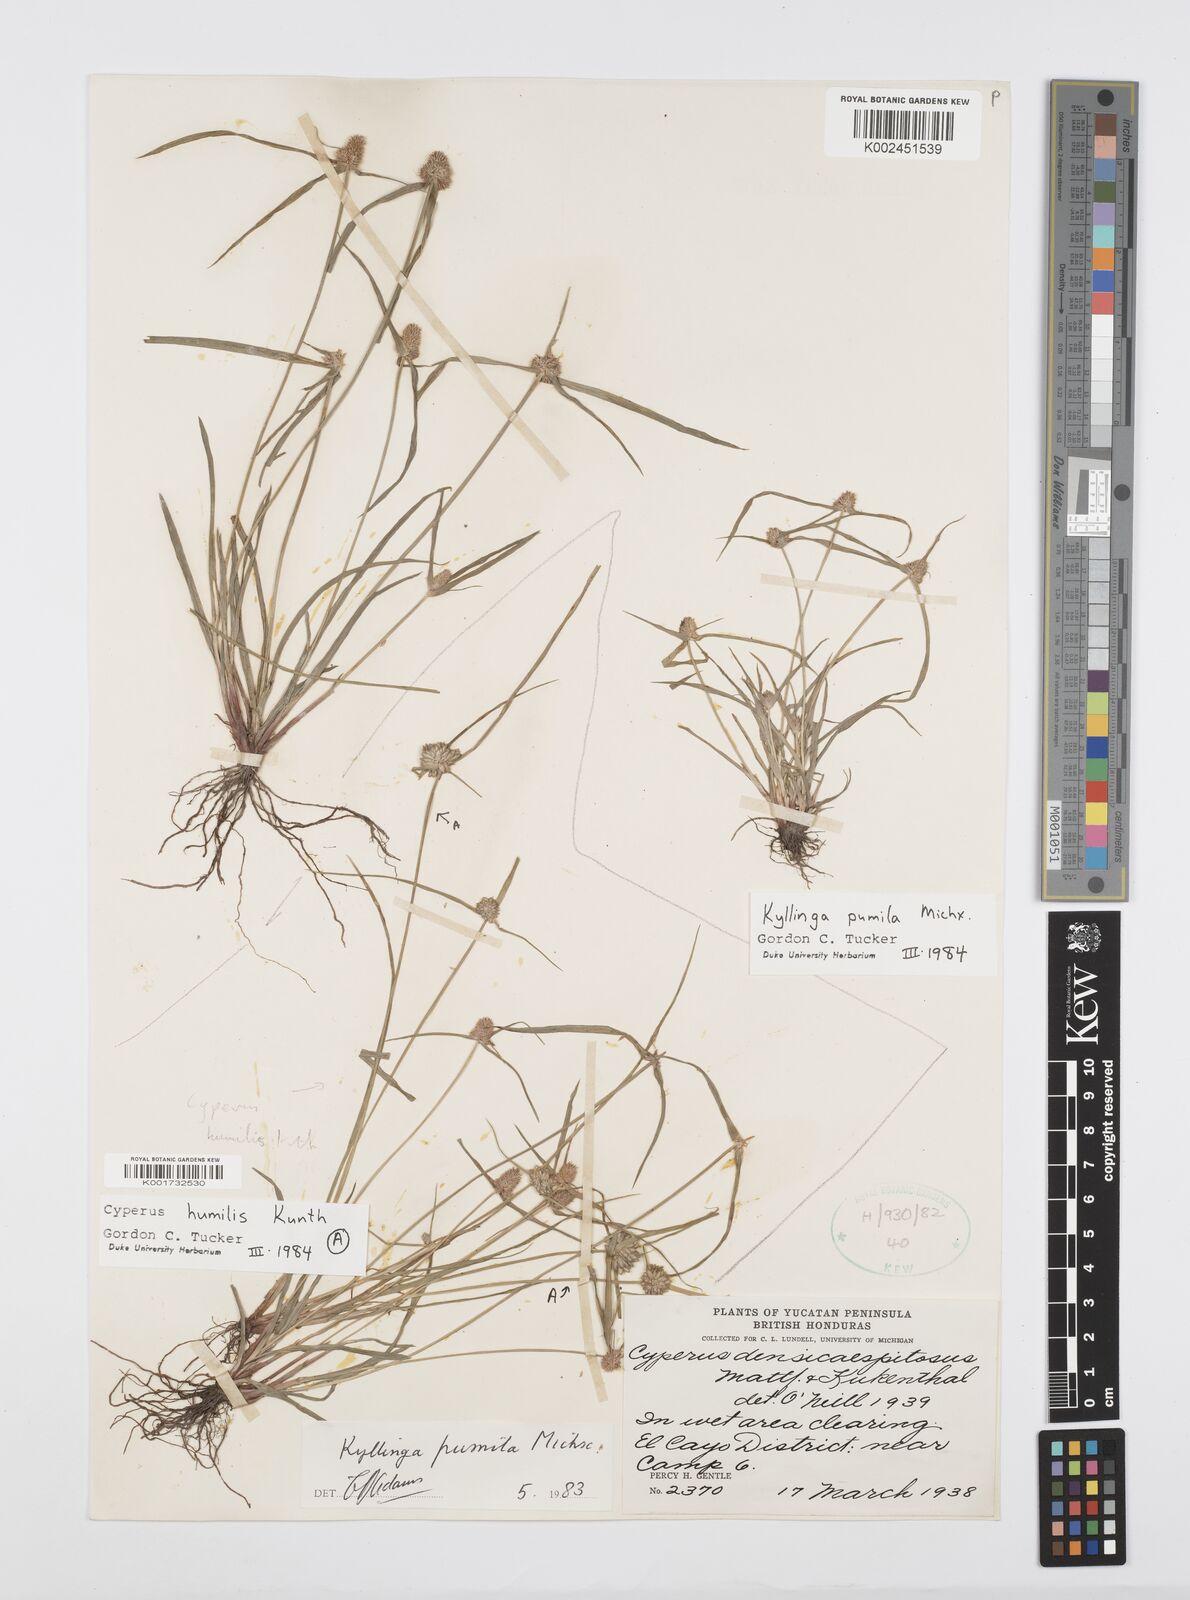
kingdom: Plantae
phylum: Tracheophyta
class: Liliopsida
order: Poales
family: Cyperaceae
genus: Cyperus
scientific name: Cyperus hortensis
